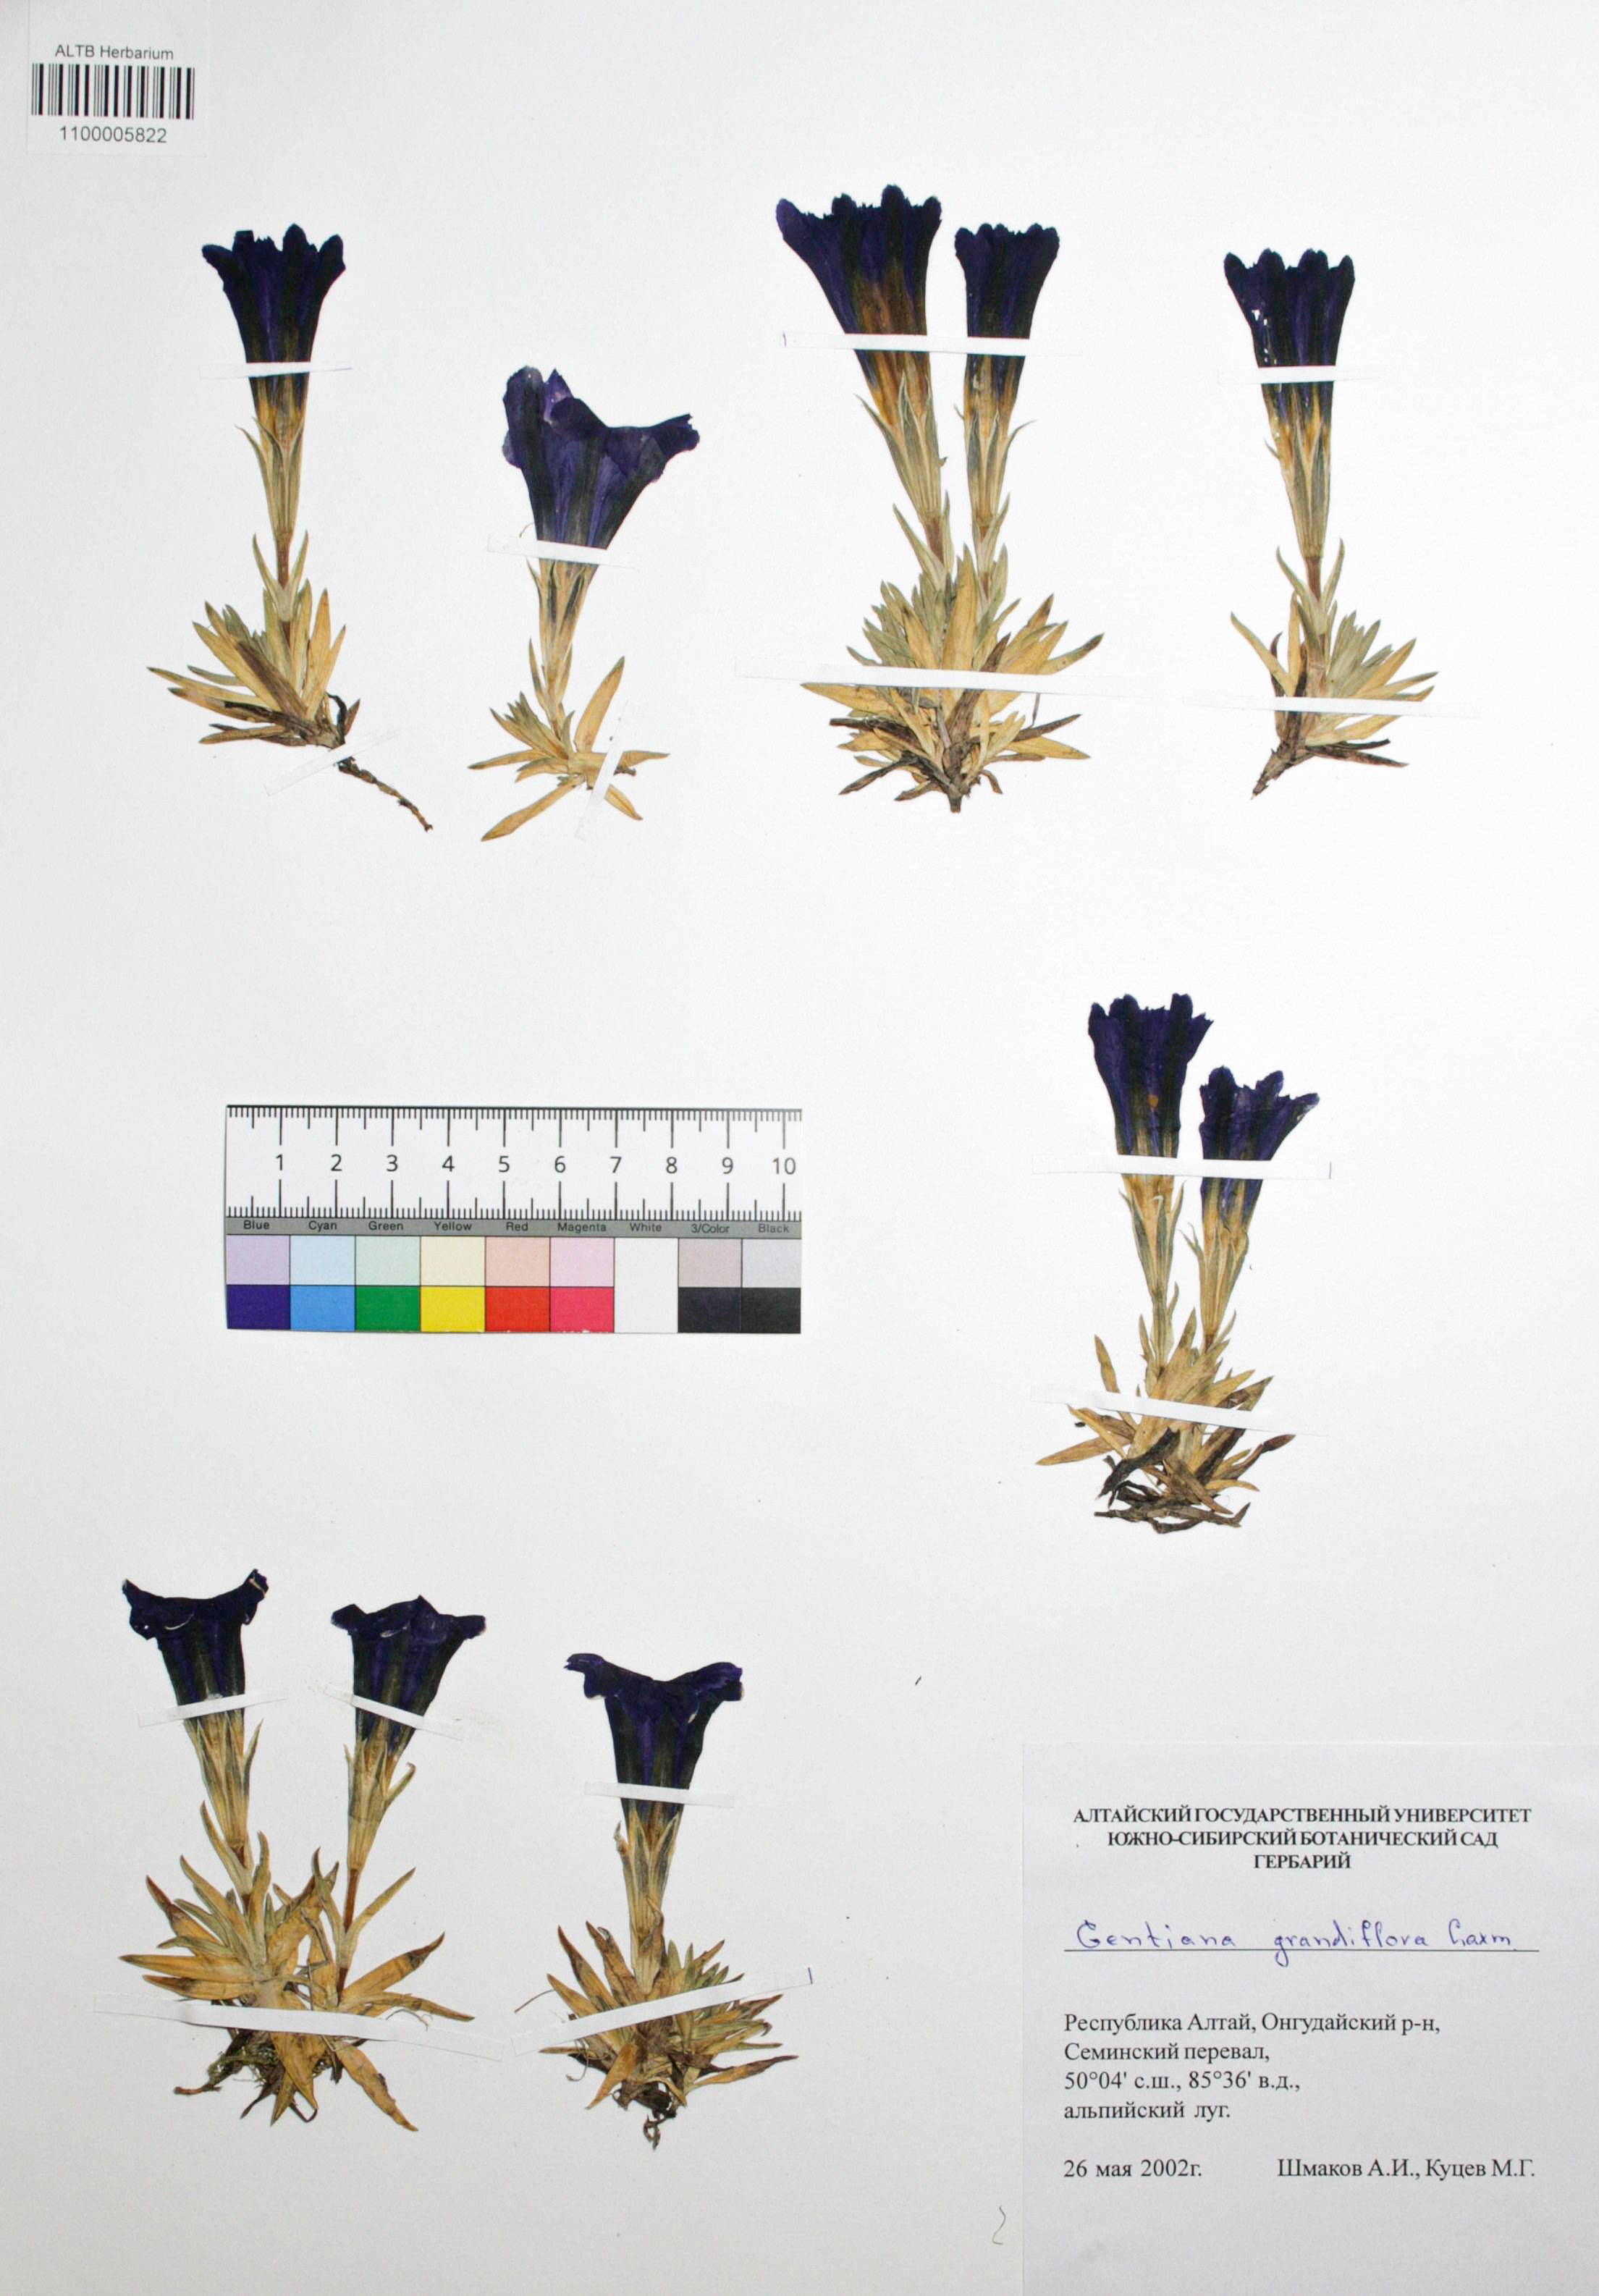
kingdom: Plantae
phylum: Tracheophyta
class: Magnoliopsida
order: Gentianales
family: Gentianaceae
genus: Gentiana
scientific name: Gentiana grandiflora
